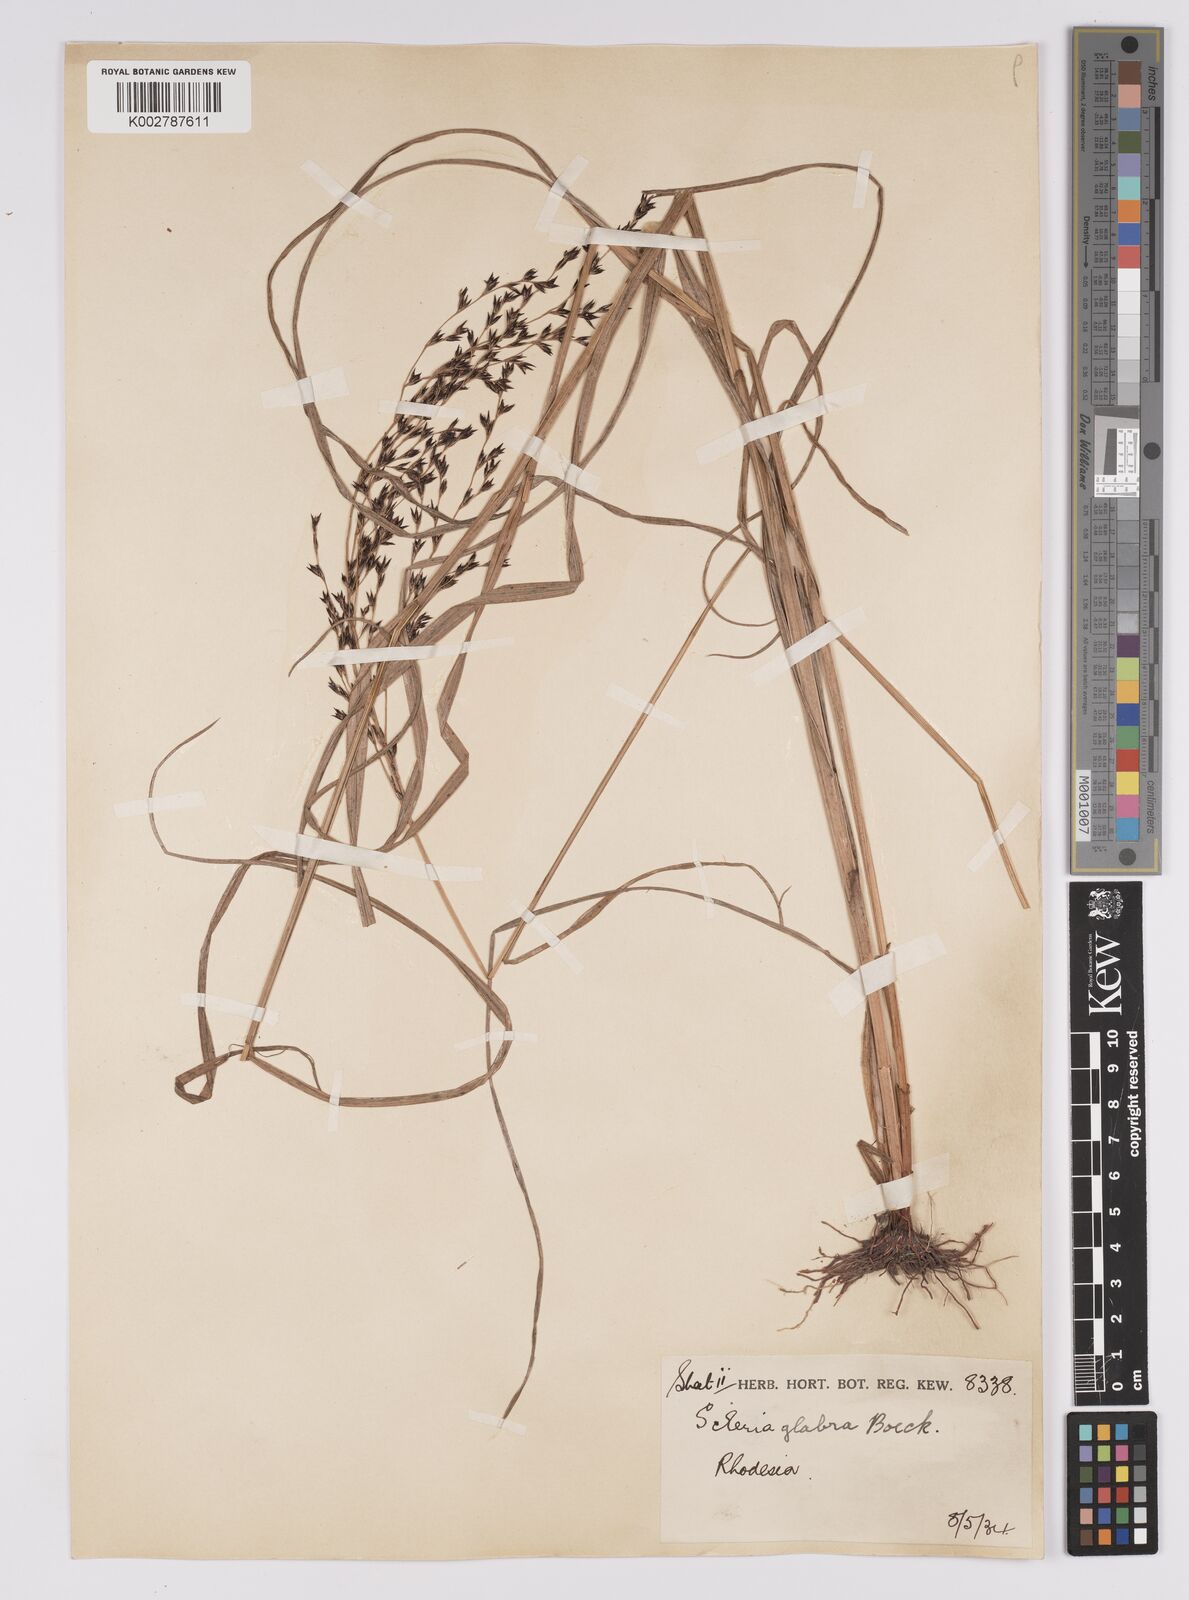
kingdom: Plantae
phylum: Tracheophyta
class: Liliopsida
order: Poales
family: Cyperaceae
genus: Scleria
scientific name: Scleria glabra
